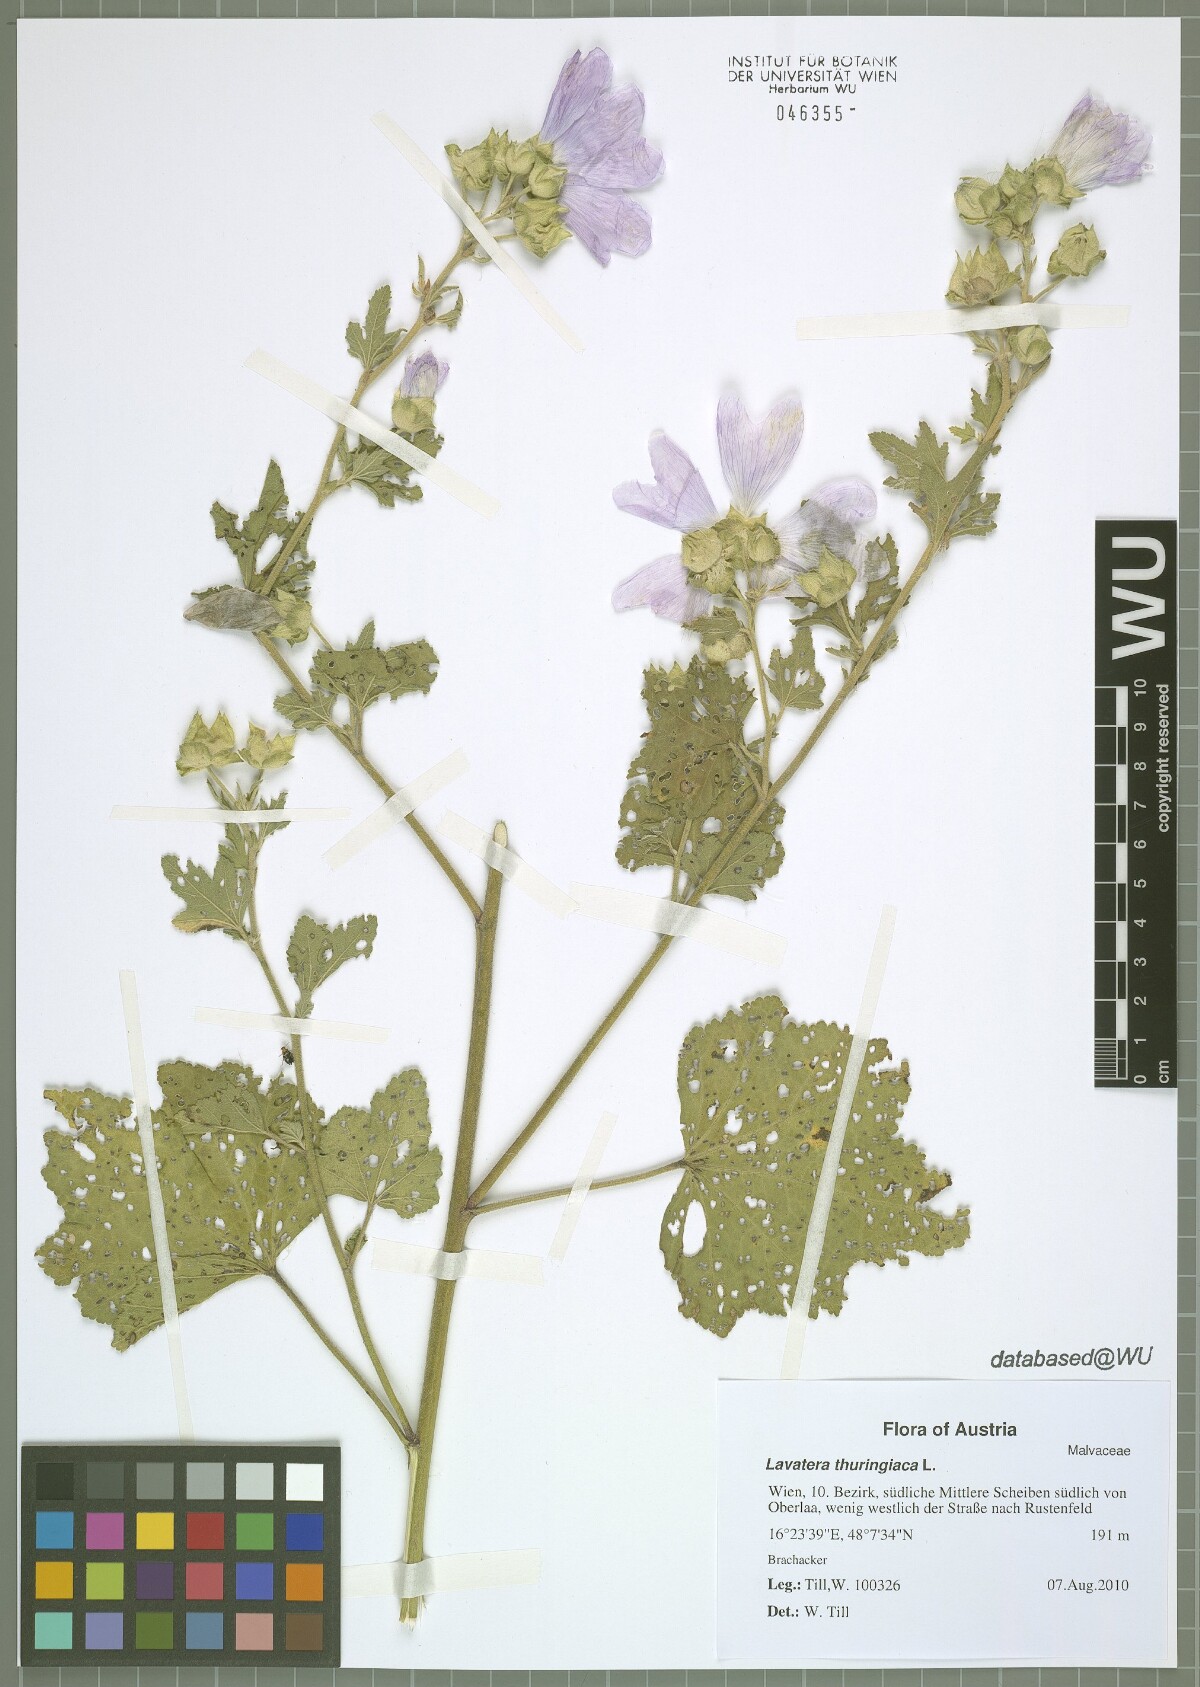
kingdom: Plantae
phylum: Tracheophyta
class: Magnoliopsida
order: Malvales
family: Malvaceae
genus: Malva
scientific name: Malva thuringiaca
